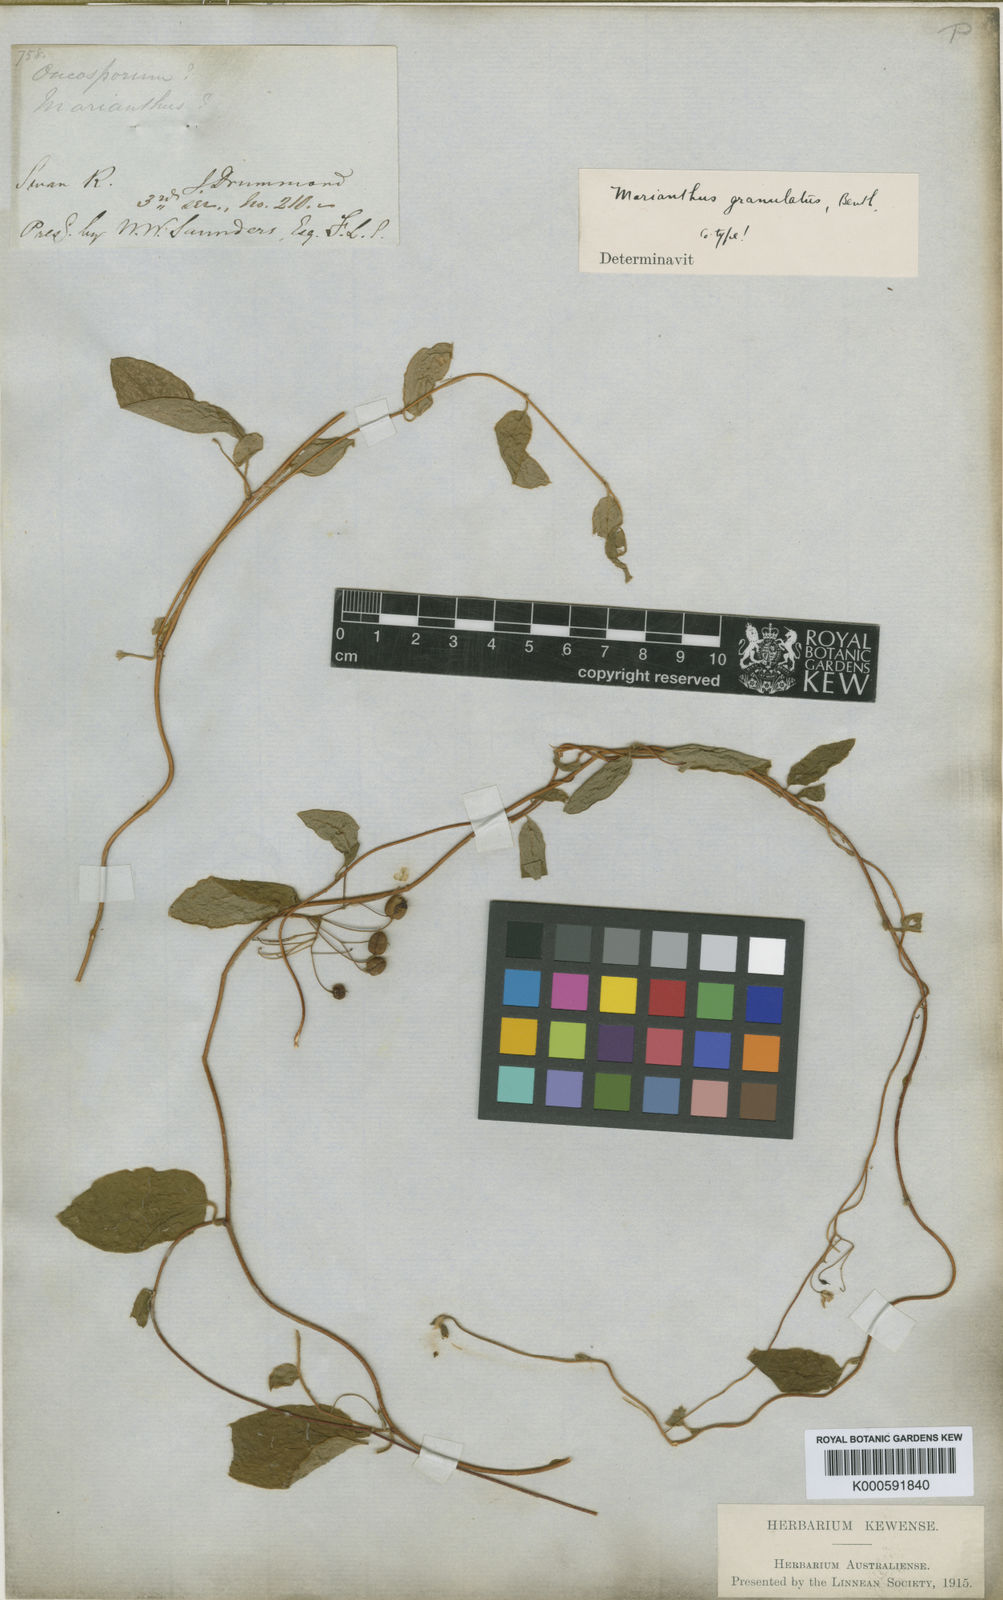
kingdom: Plantae
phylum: Tracheophyta
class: Magnoliopsida
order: Apiales
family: Pittosporaceae
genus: Marianthus
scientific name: Marianthus granulatus
